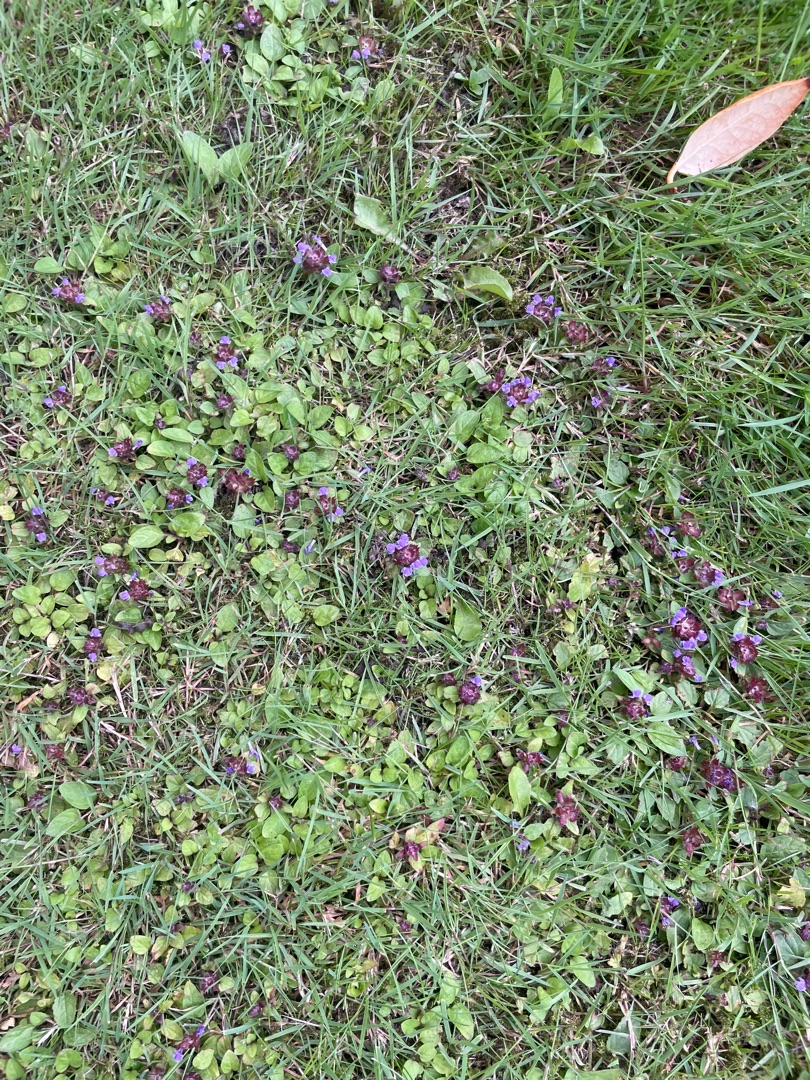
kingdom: Plantae
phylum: Tracheophyta
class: Magnoliopsida
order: Lamiales
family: Lamiaceae
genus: Prunella
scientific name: Prunella vulgaris
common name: Almindelig brunelle
